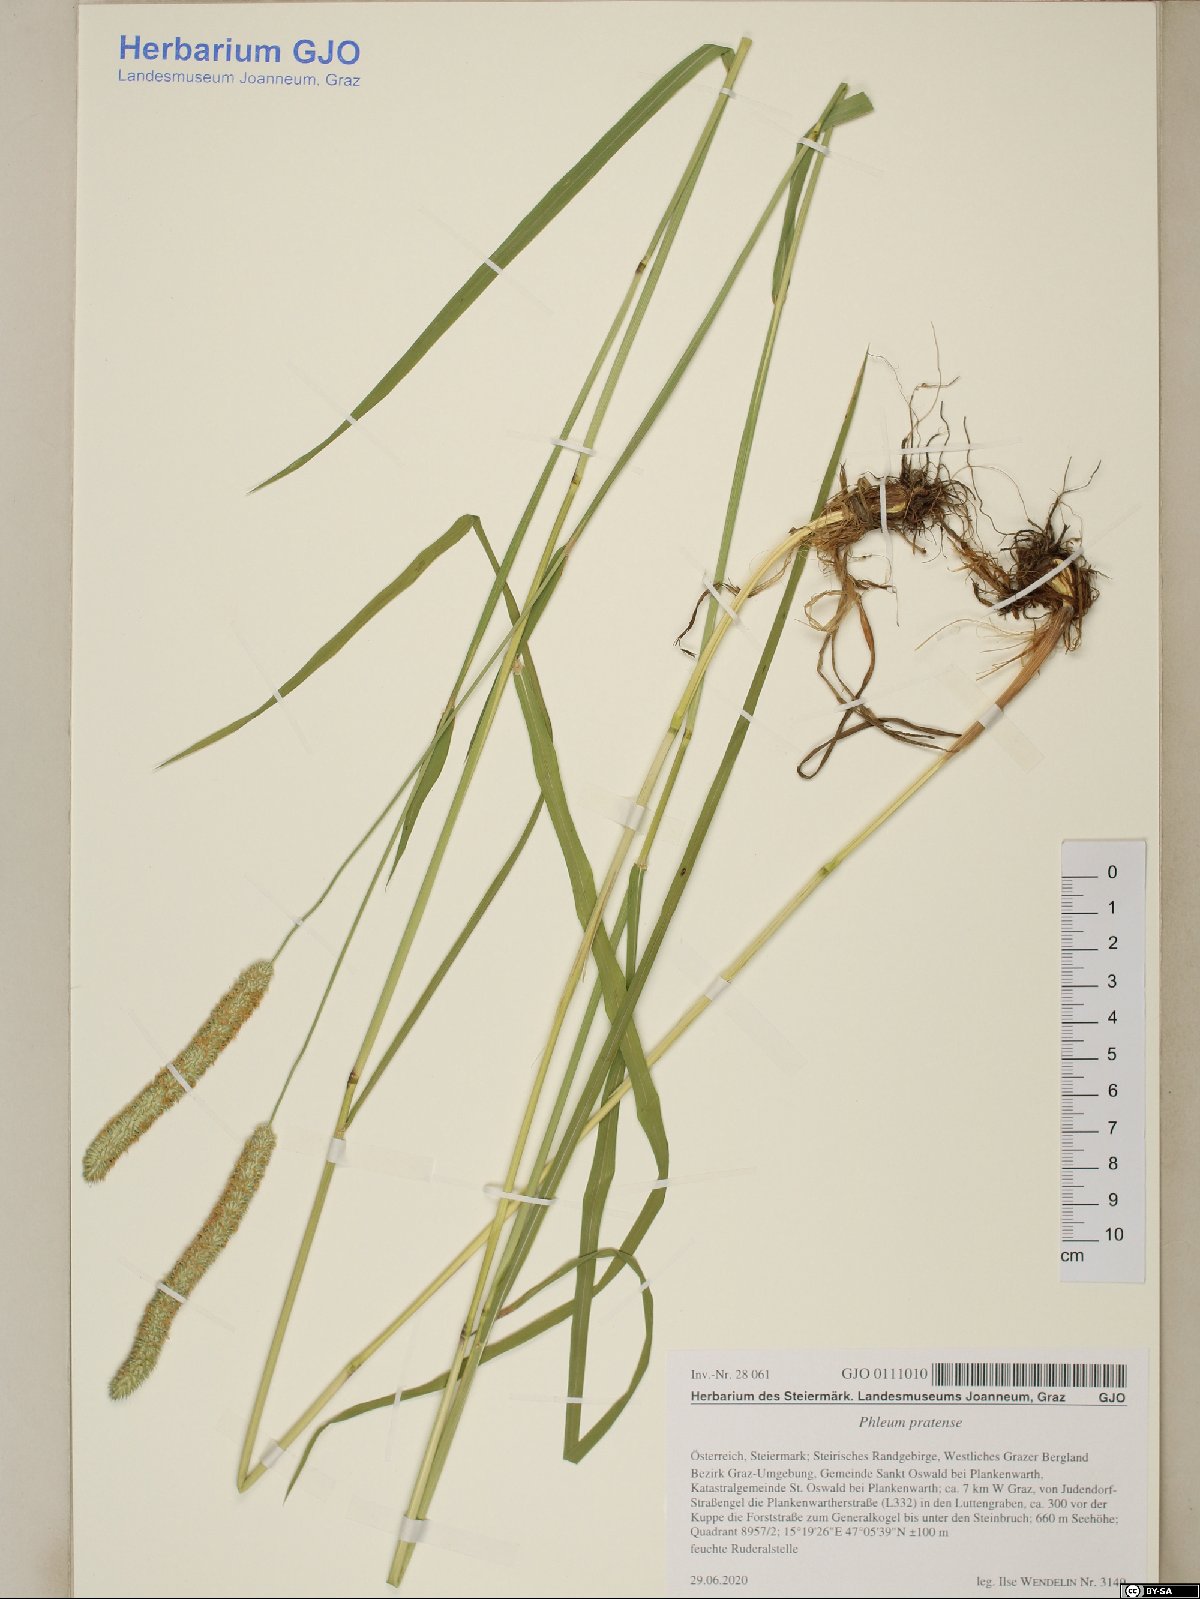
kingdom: Plantae
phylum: Tracheophyta
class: Liliopsida
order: Poales
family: Poaceae
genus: Phleum
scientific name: Phleum pratense
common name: Timothy grass
